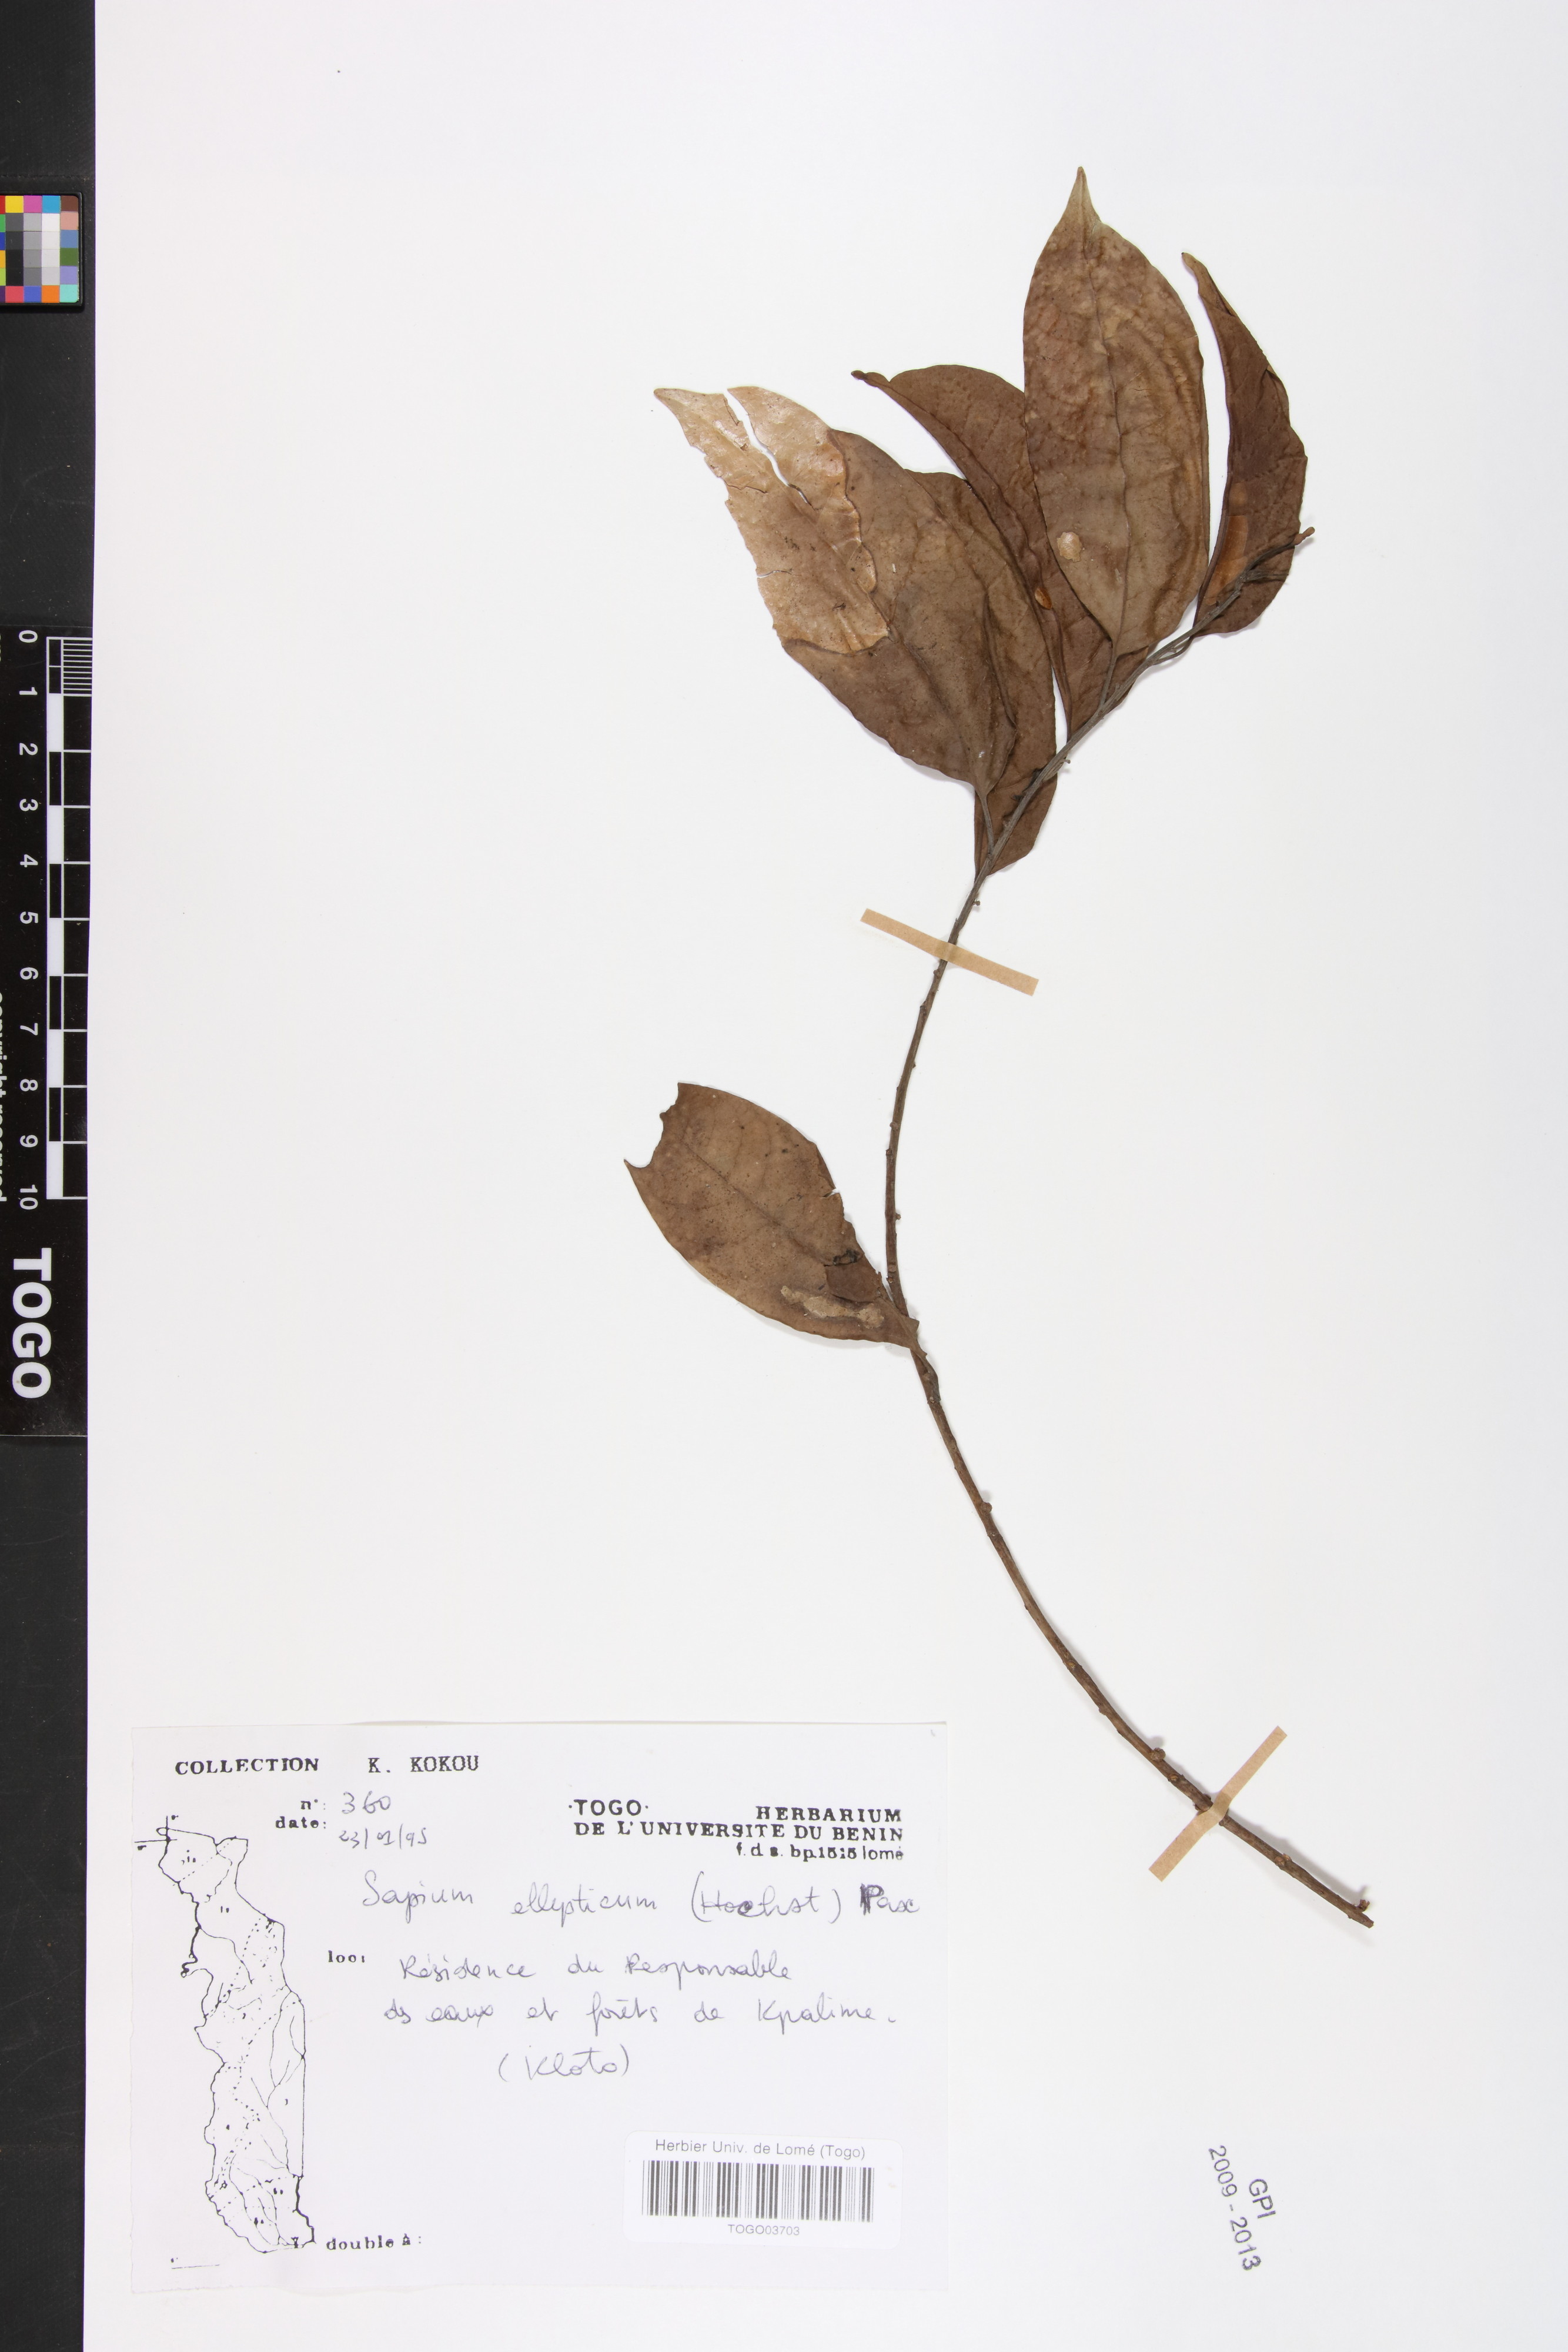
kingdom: Plantae
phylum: Tracheophyta
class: Magnoliopsida
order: Malpighiales
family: Euphorbiaceae
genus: Shirakiopsis
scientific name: Shirakiopsis elliptica
